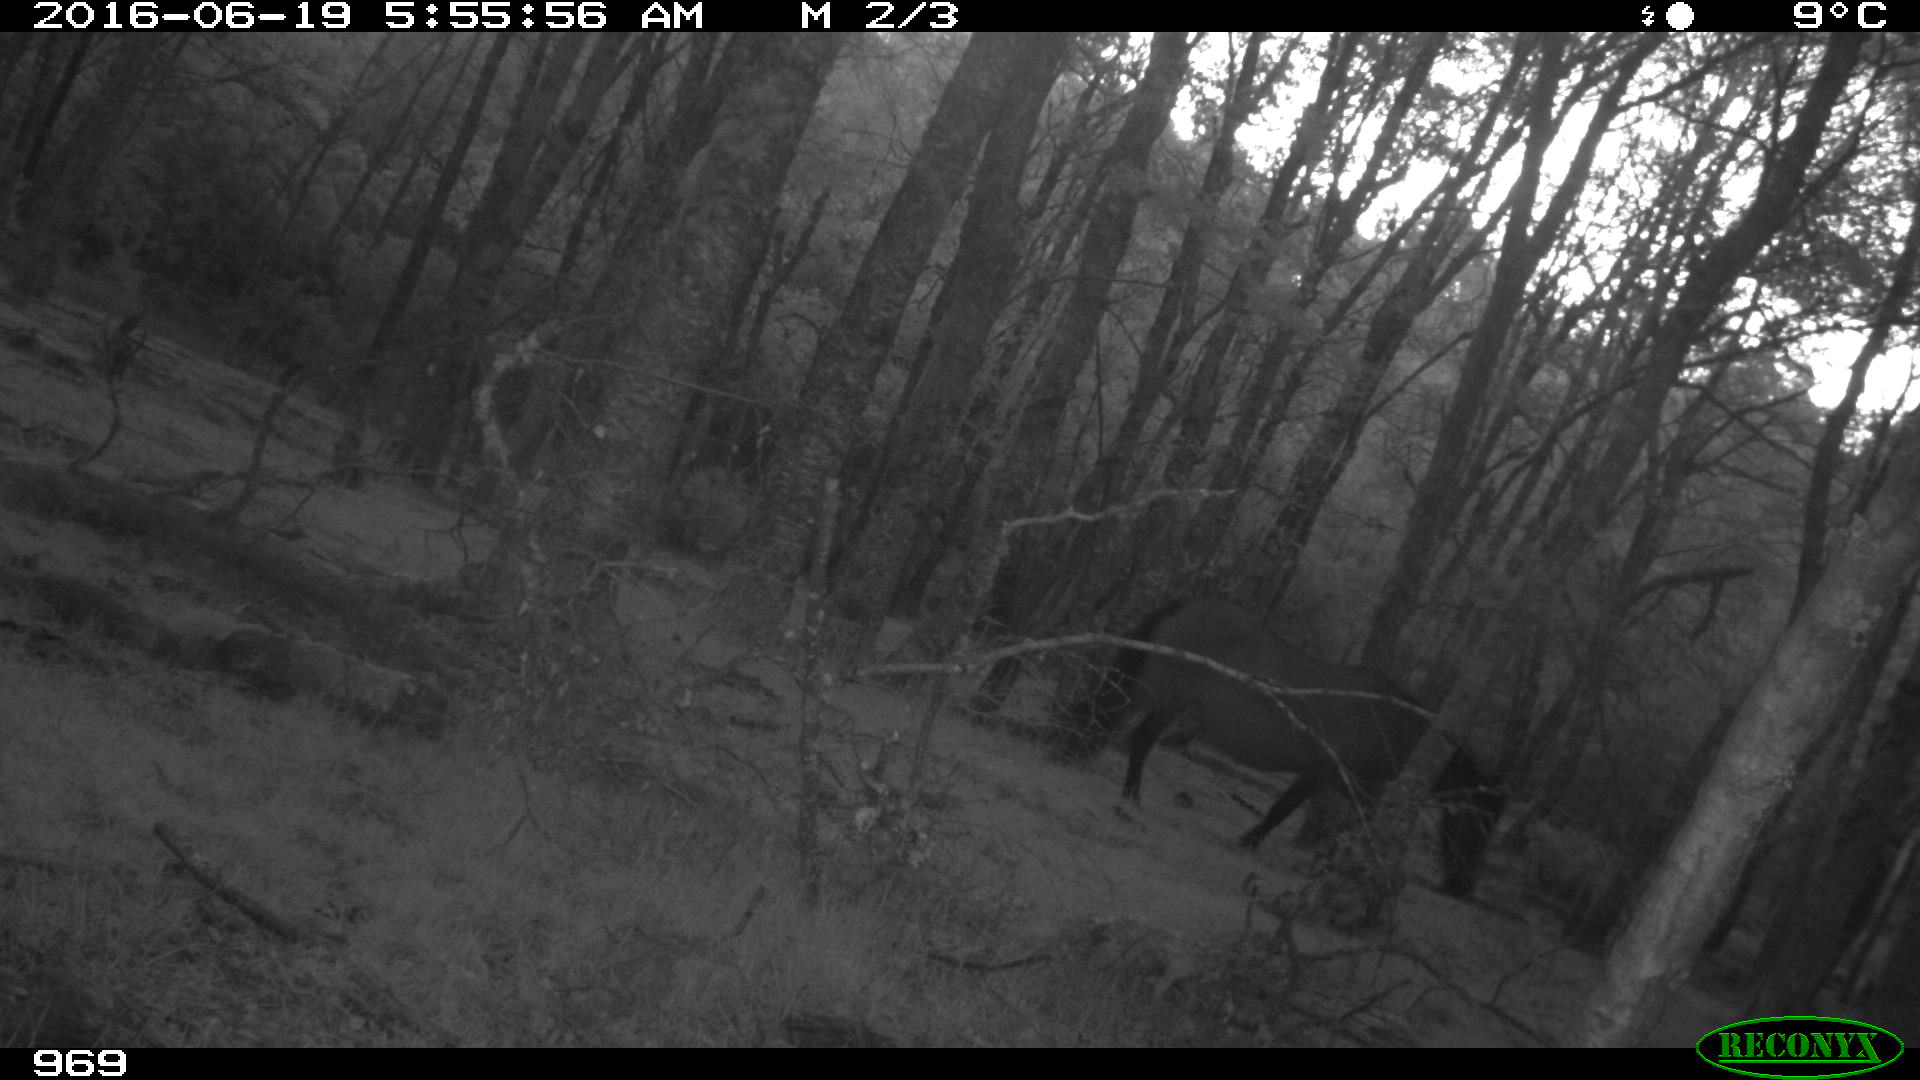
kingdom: Animalia
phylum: Chordata
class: Mammalia
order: Perissodactyla
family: Equidae
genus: Equus
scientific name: Equus caballus
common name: Horse
